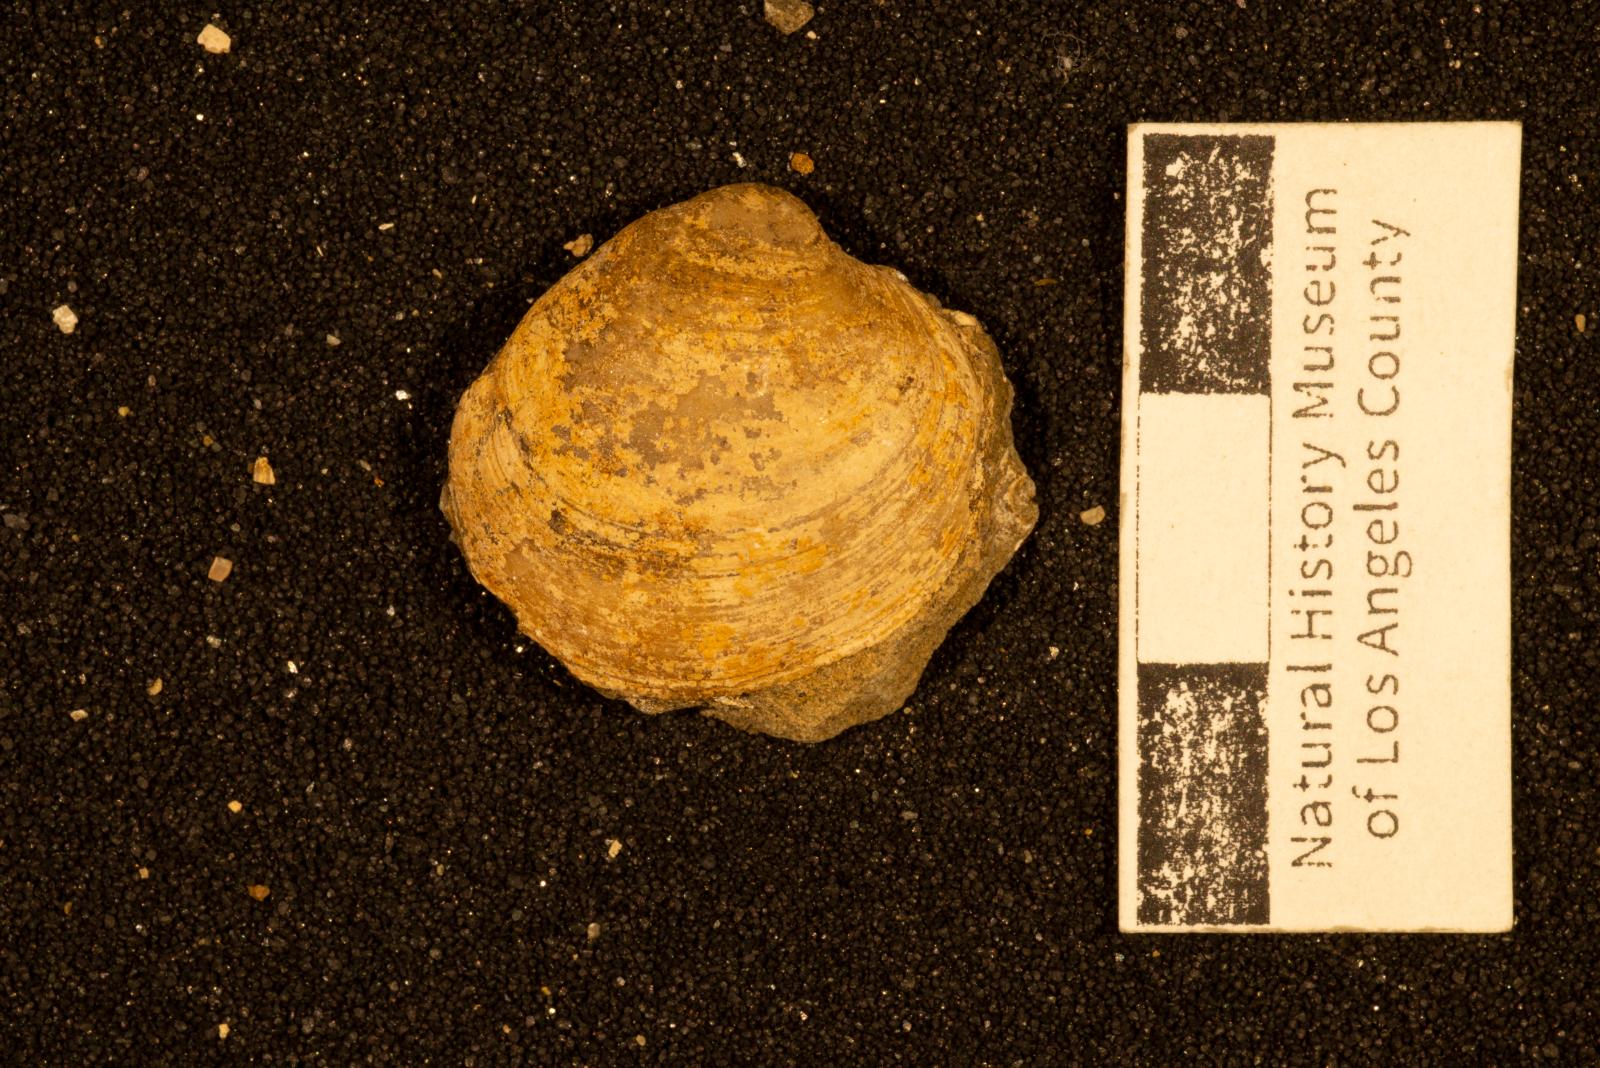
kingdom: Animalia
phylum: Mollusca
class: Bivalvia
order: Venerida
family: Veneridae
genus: Paraesa
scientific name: Paraesa
